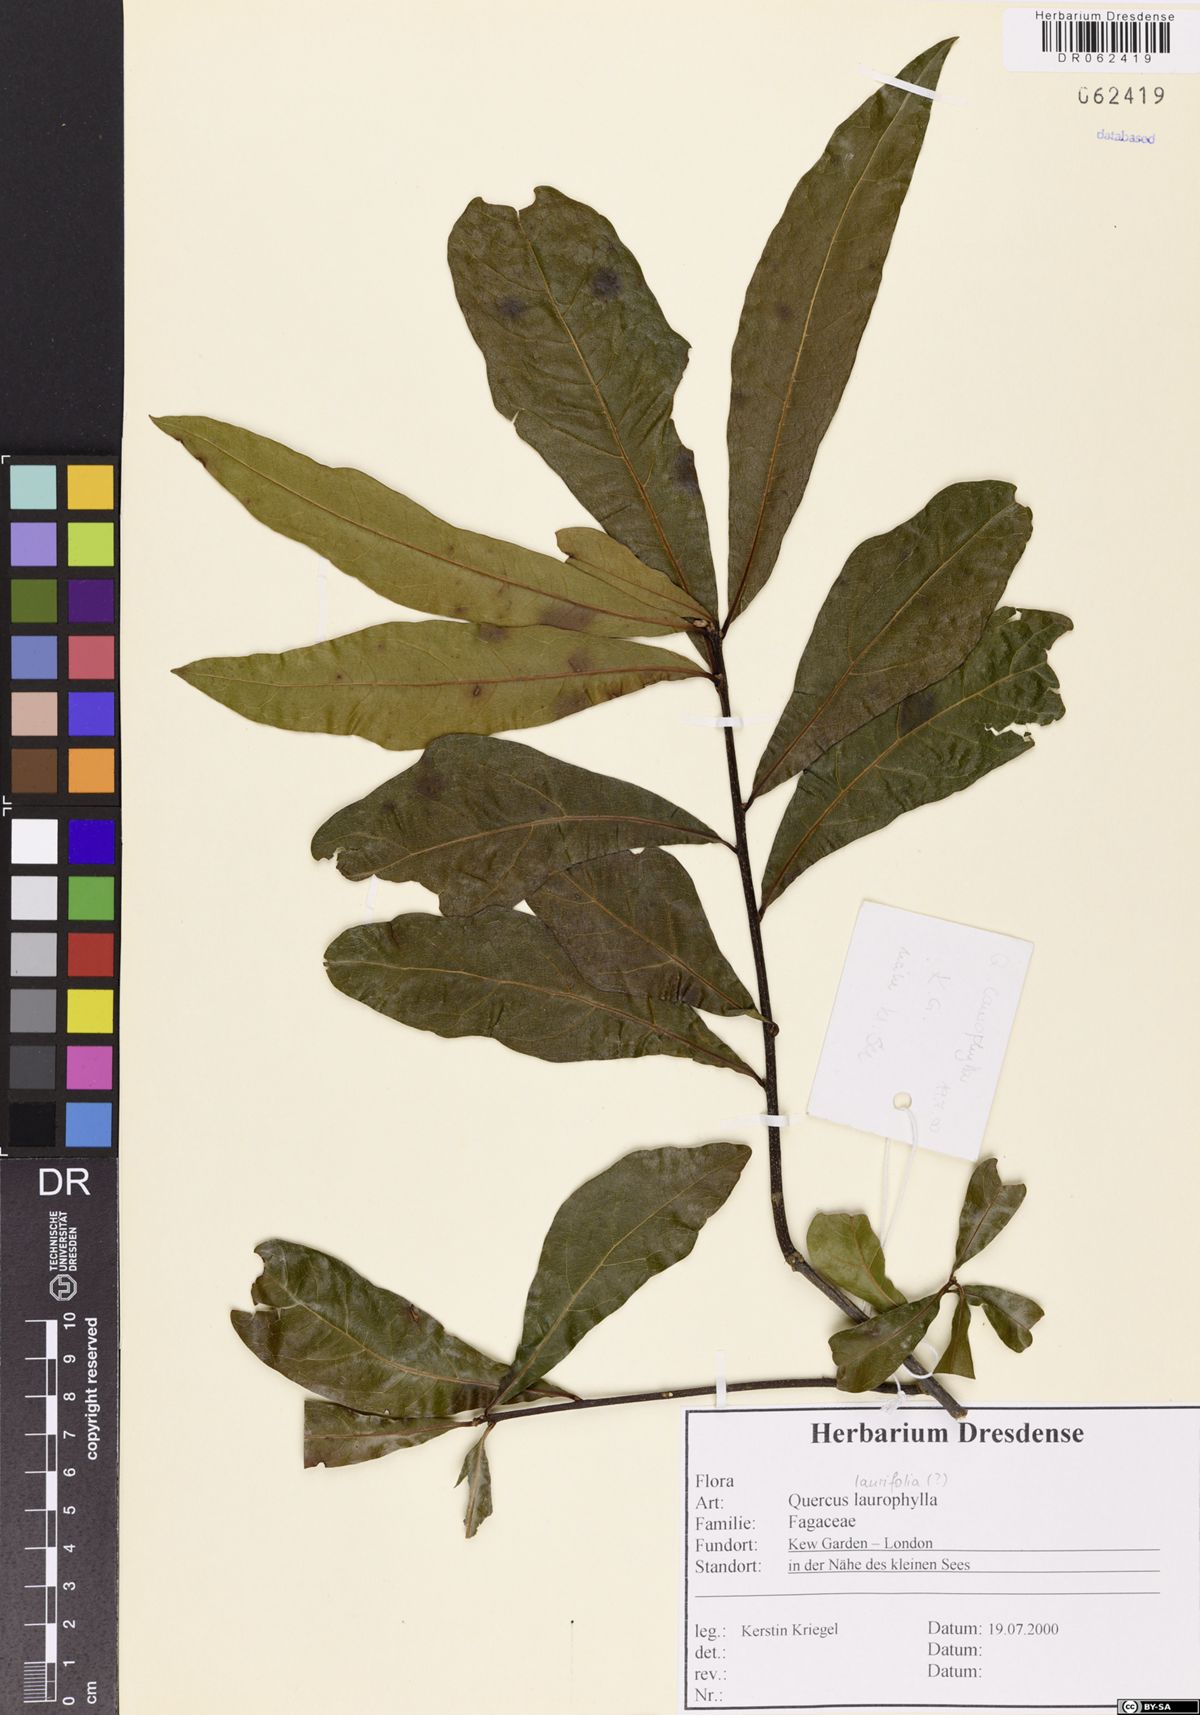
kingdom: Plantae
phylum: Tracheophyta
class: Magnoliopsida
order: Fagales
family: Fagaceae
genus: Quercus
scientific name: Quercus laurifolia
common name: Swamp laurel oak
